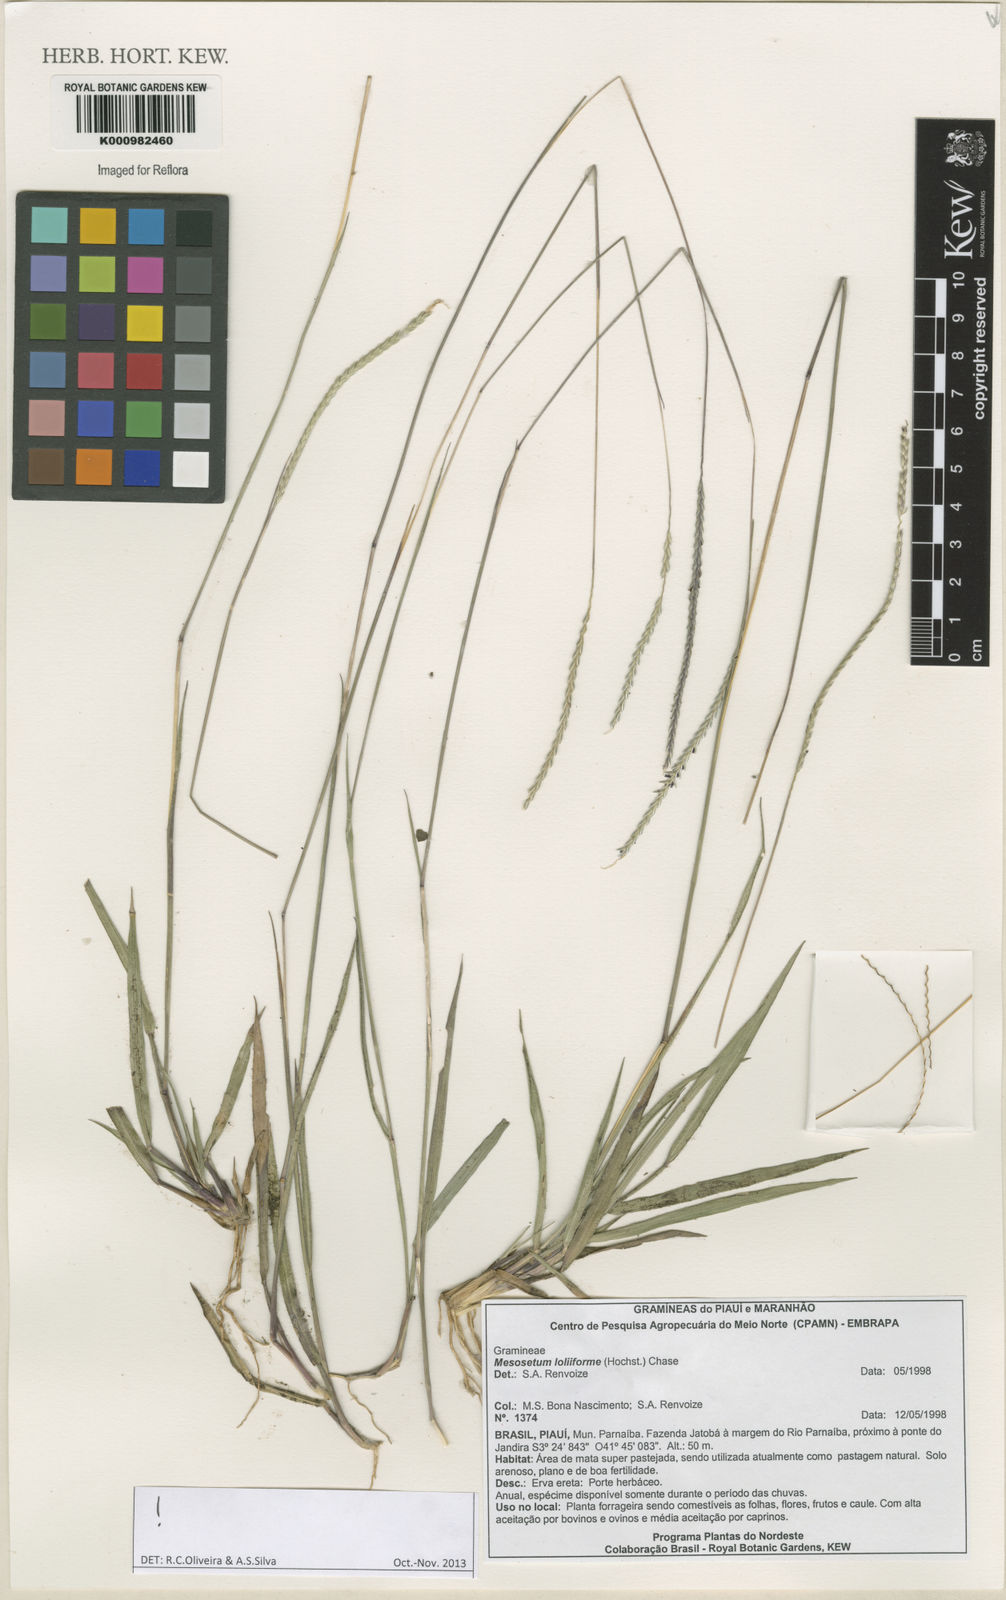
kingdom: Plantae
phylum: Tracheophyta
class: Liliopsida
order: Poales
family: Poaceae
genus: Mesosetum
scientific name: Mesosetum
